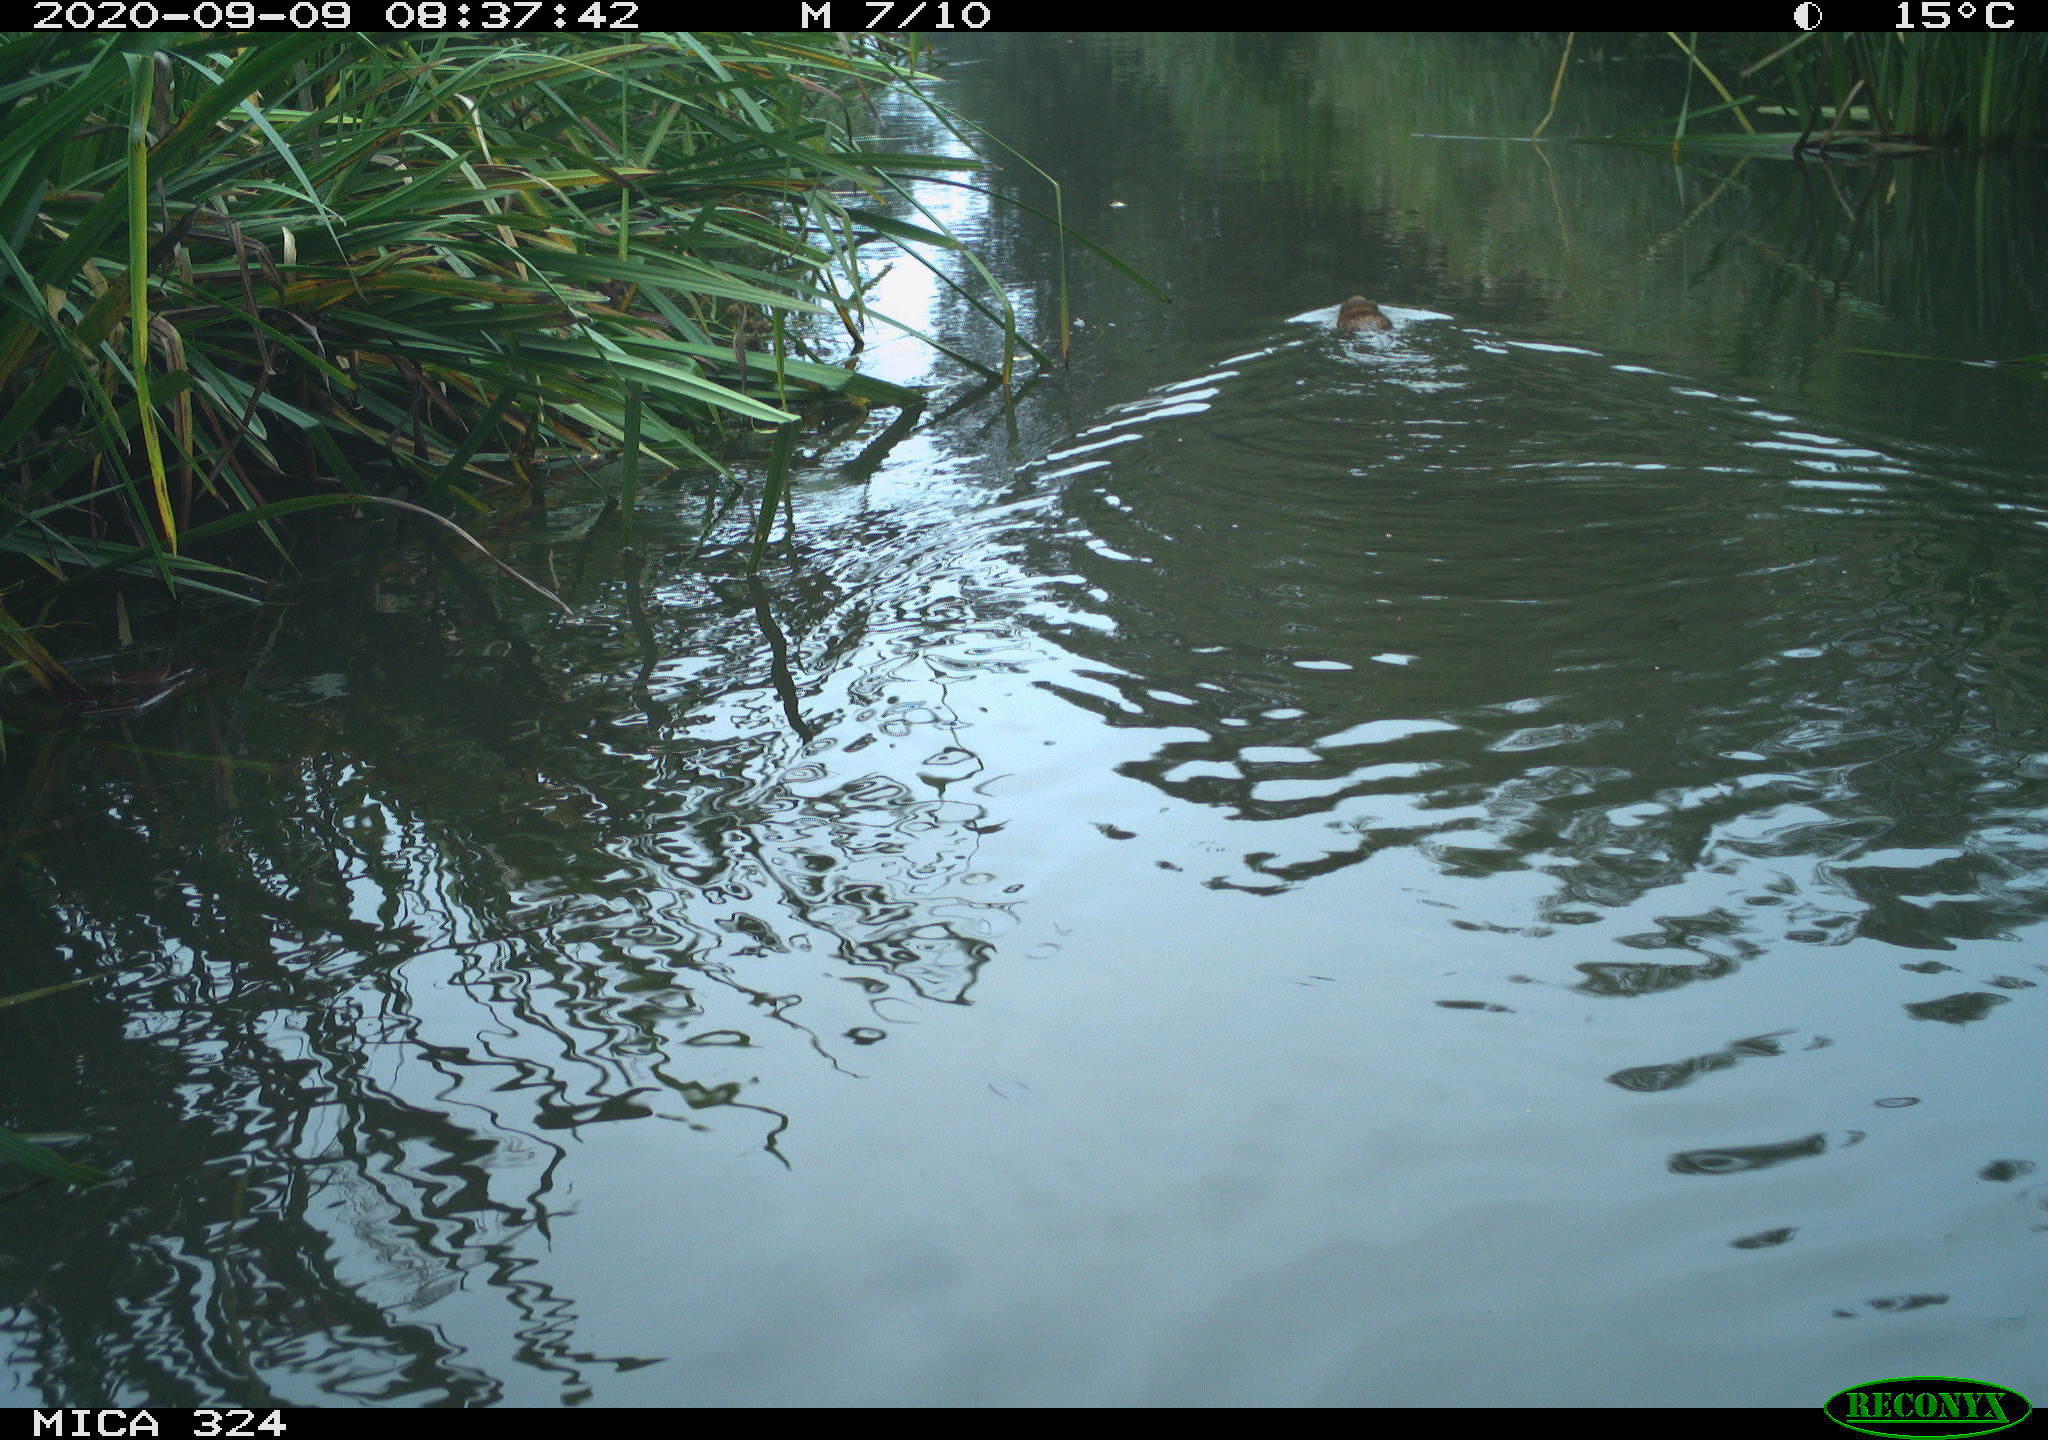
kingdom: Animalia
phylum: Chordata
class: Mammalia
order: Rodentia
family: Cricetidae
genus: Ondatra
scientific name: Ondatra zibethicus
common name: Muskrat
